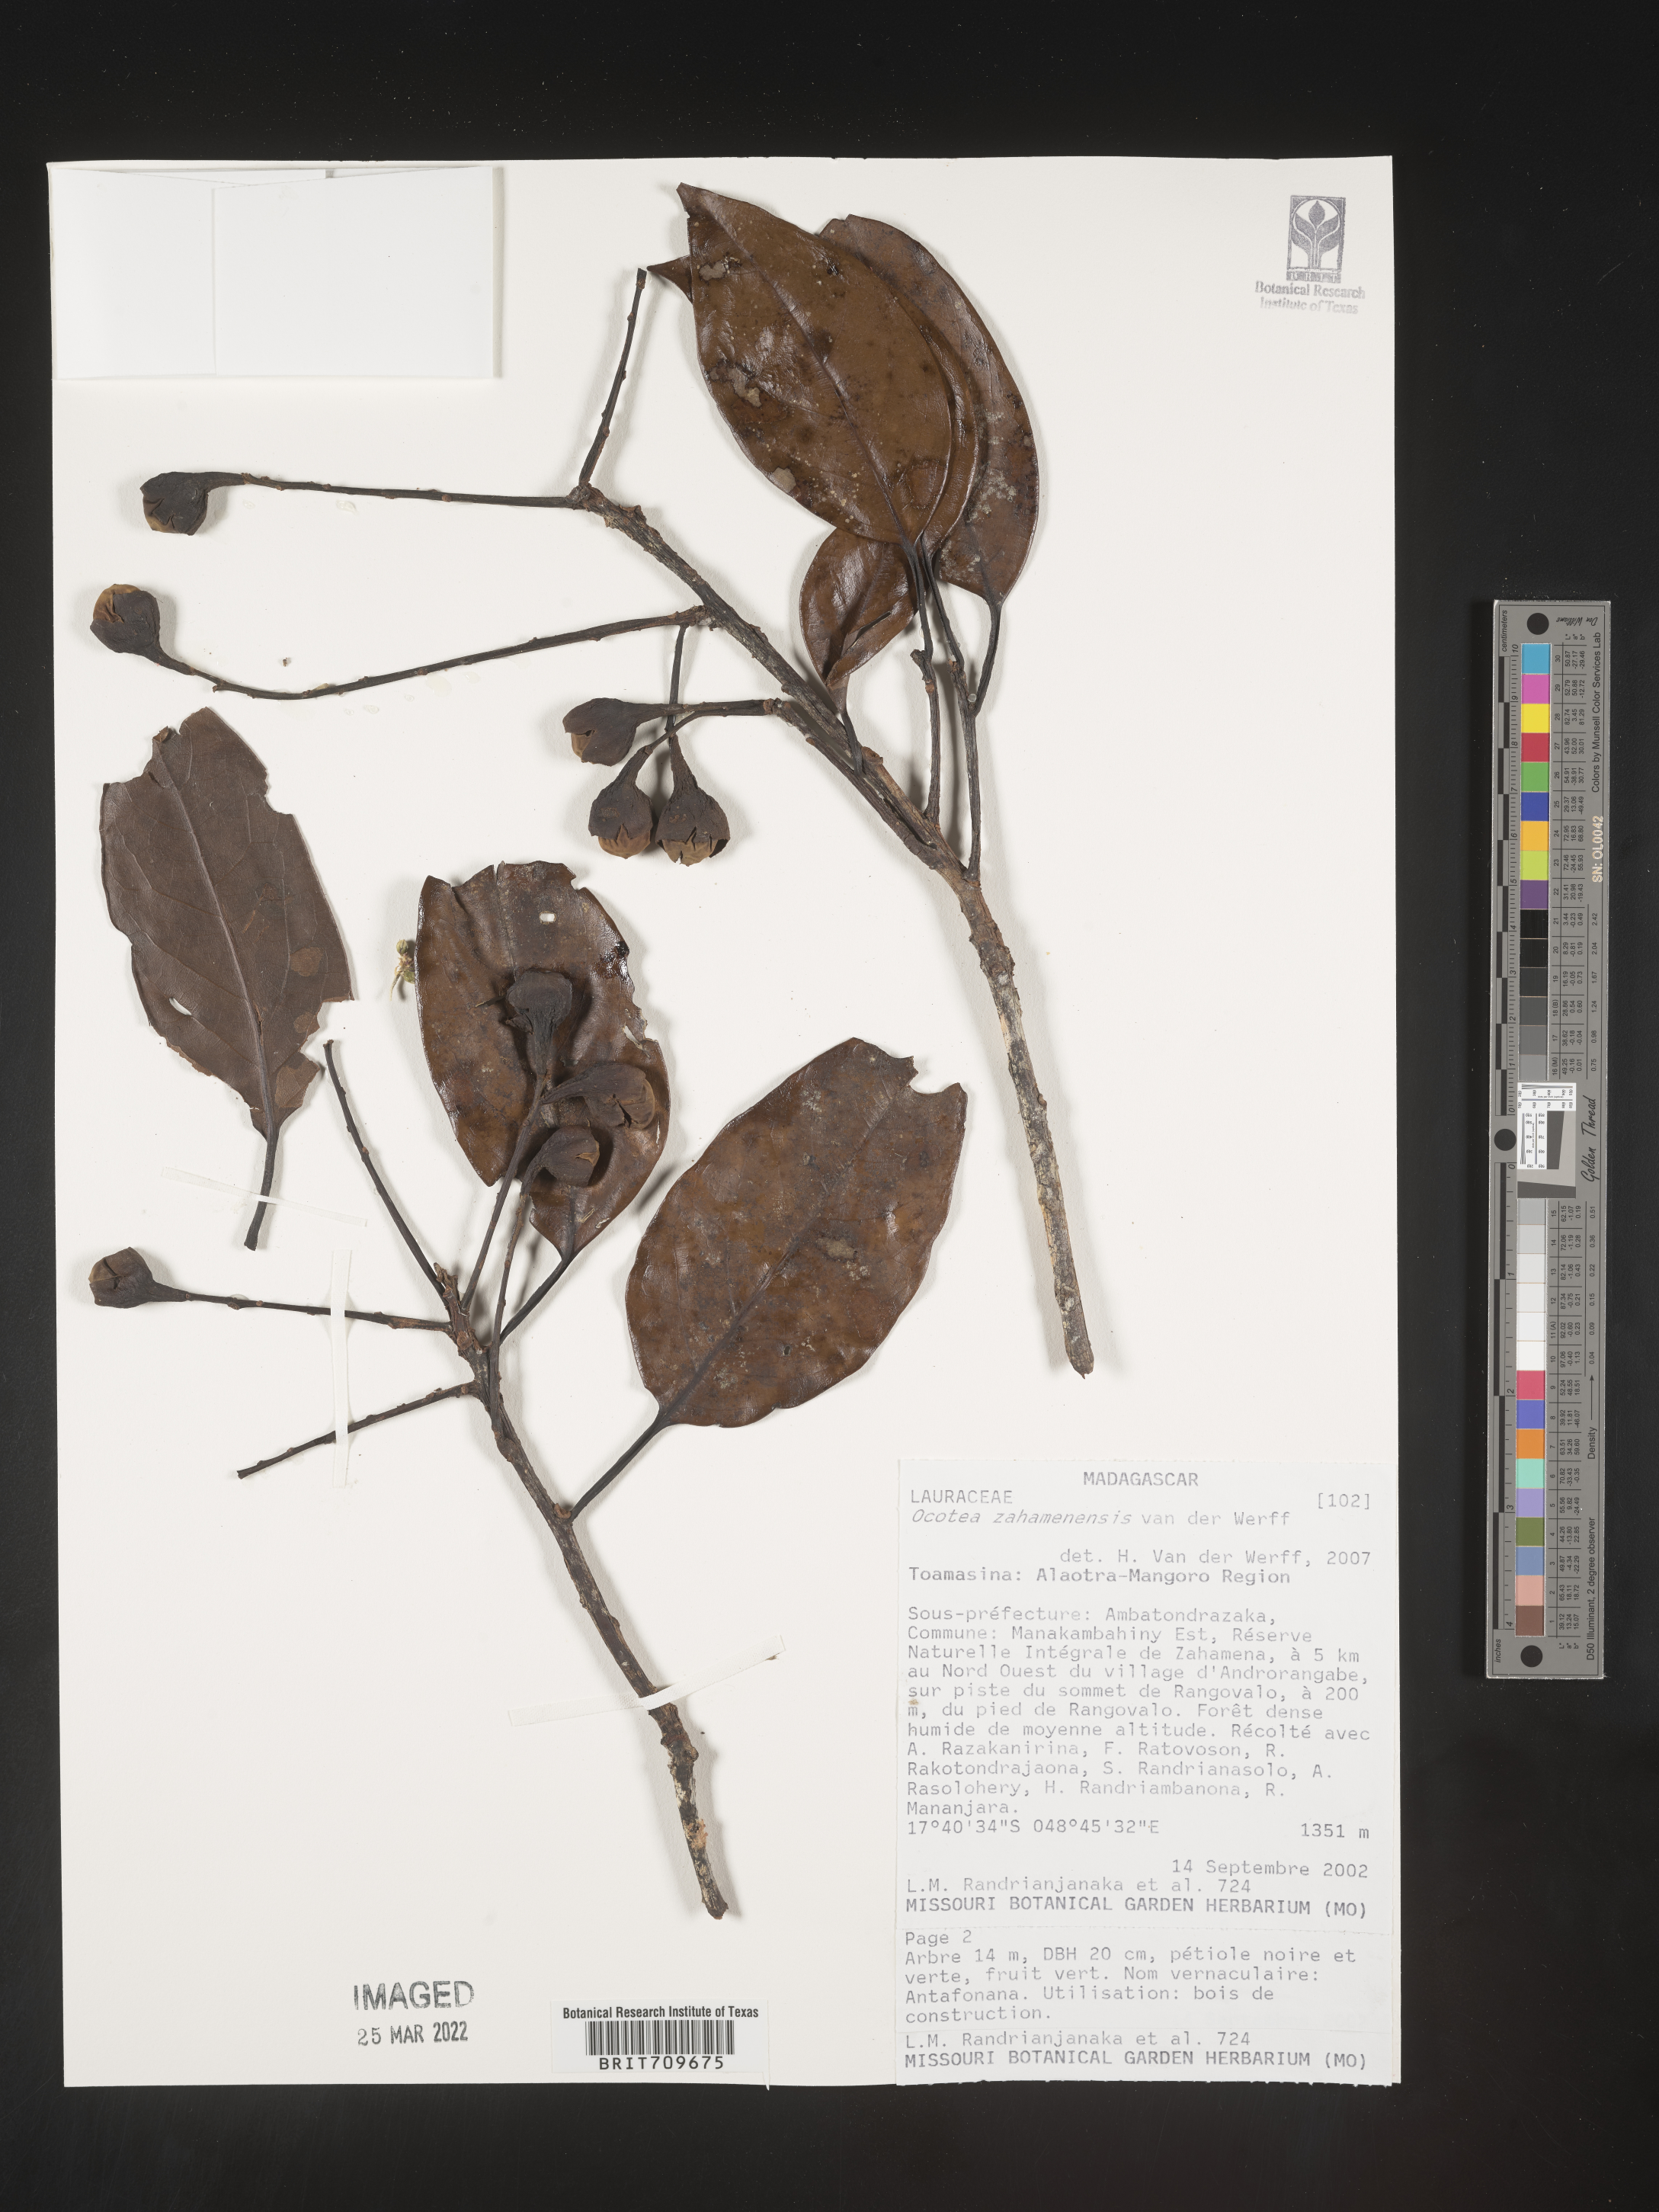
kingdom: Plantae
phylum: Tracheophyta
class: Magnoliopsida
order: Laurales
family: Lauraceae
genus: Ocotea
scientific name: Ocotea
